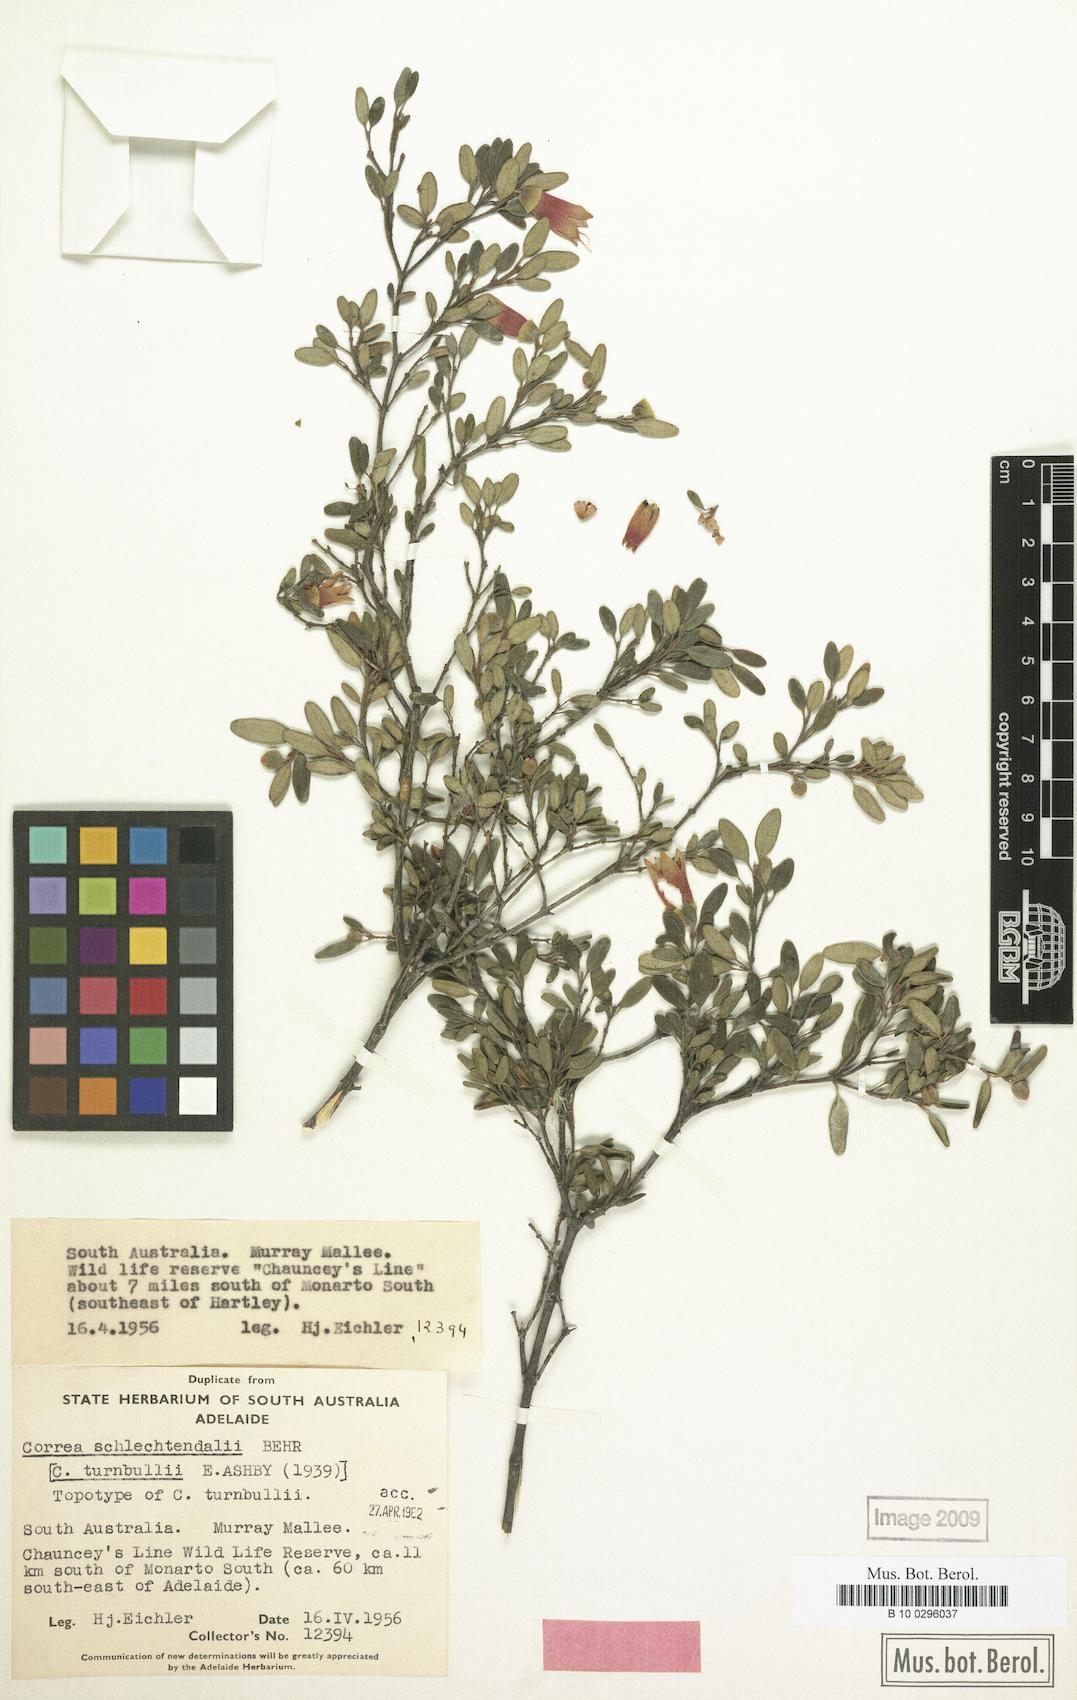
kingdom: Plantae
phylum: Tracheophyta
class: Magnoliopsida
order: Sapindales
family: Rutaceae
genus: Correa
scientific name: Correa glabra
